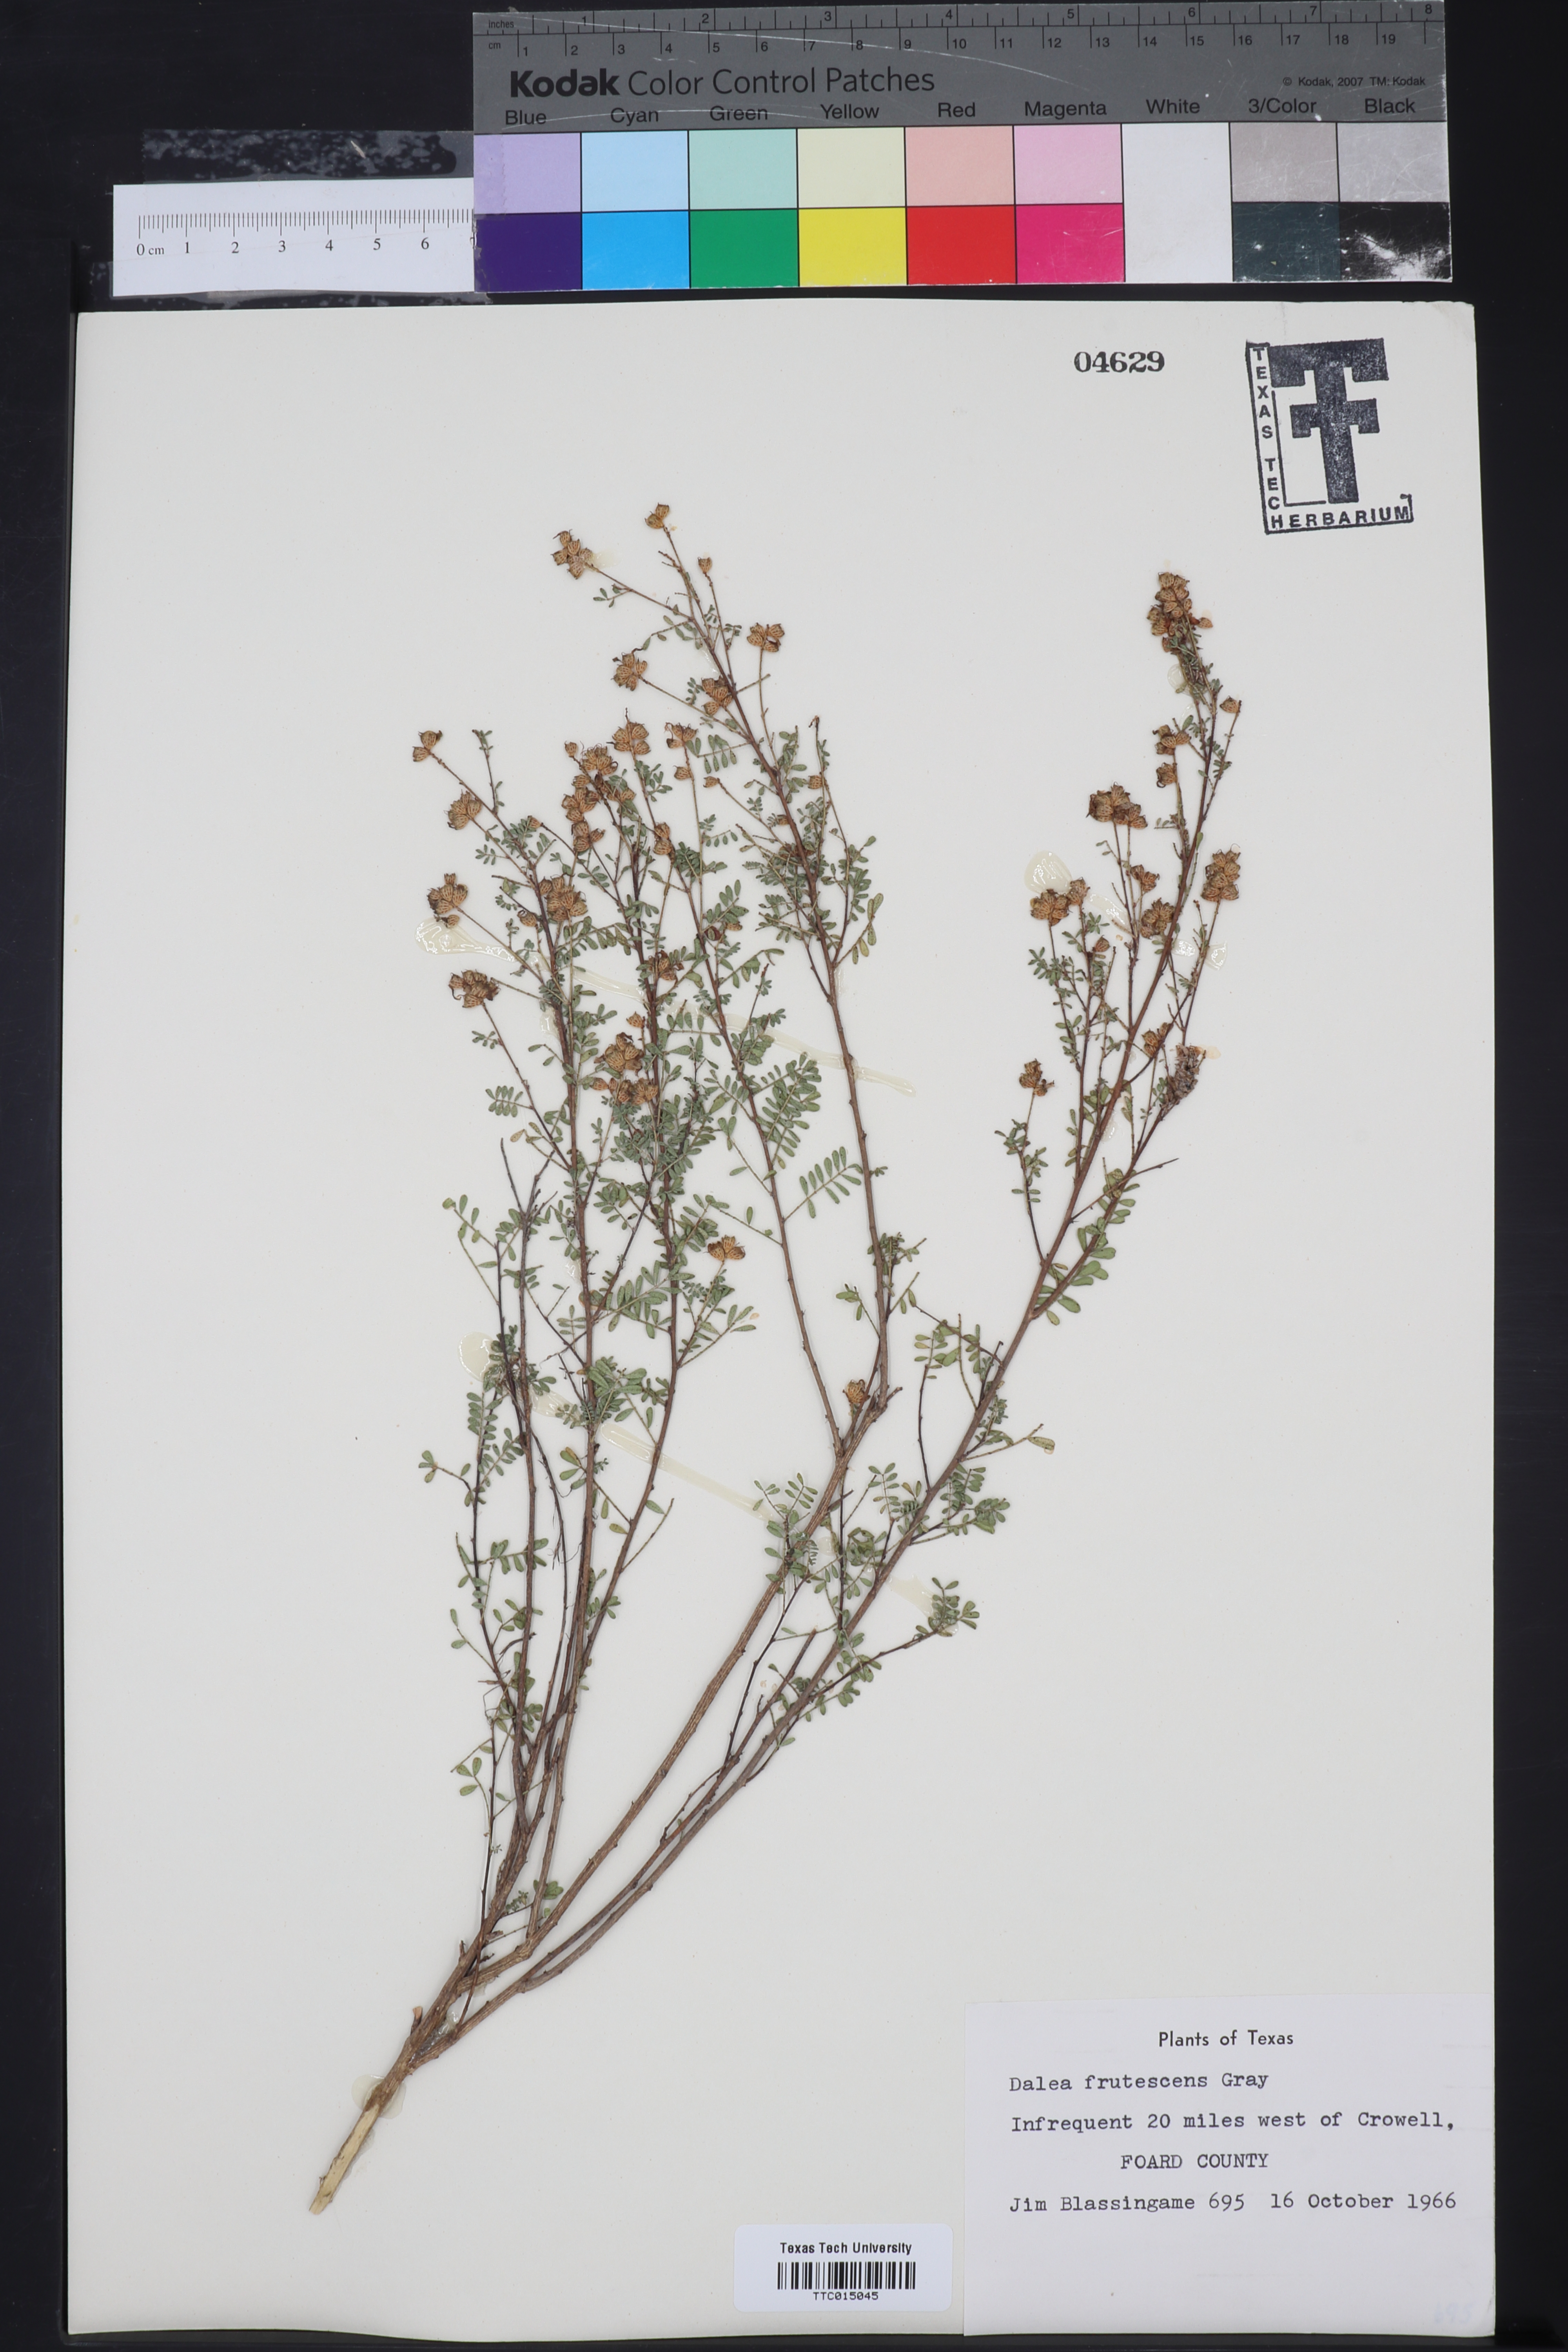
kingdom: Plantae
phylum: Tracheophyta
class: Magnoliopsida
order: Fabales
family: Fabaceae
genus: Dalea
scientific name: Dalea frutescens
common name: Black dalea
